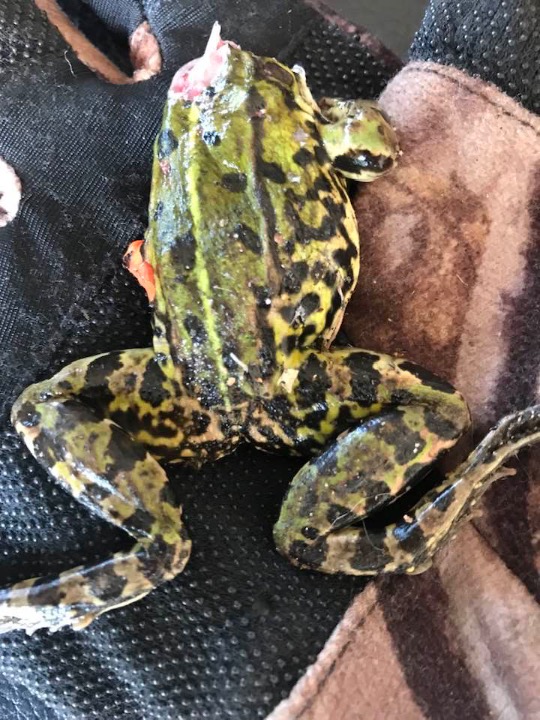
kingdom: Animalia
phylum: Chordata
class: Amphibia
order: Anura
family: Ranidae
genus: Pelophylax
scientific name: Pelophylax lessonae
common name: Grøn frø
